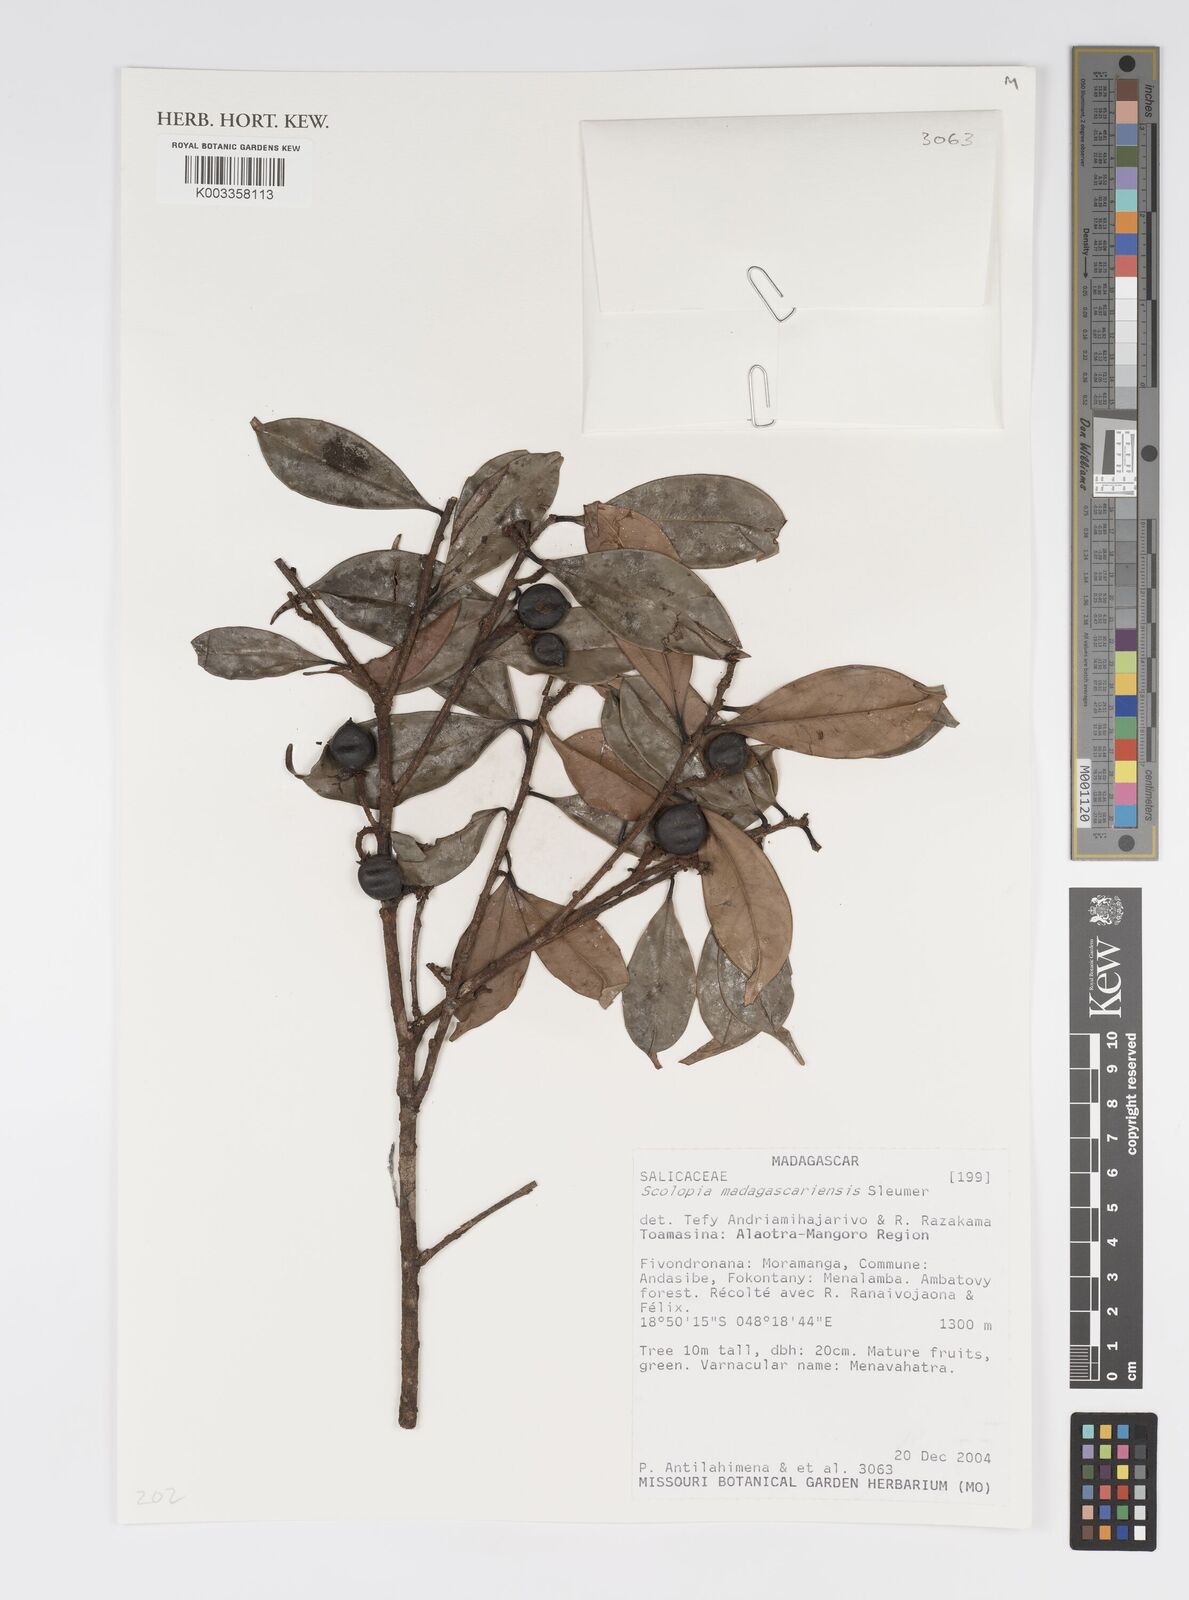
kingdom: Plantae
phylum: Tracheophyta
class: Magnoliopsida
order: Malpighiales
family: Salicaceae
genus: Scolopia
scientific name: Scolopia madagascariensis
